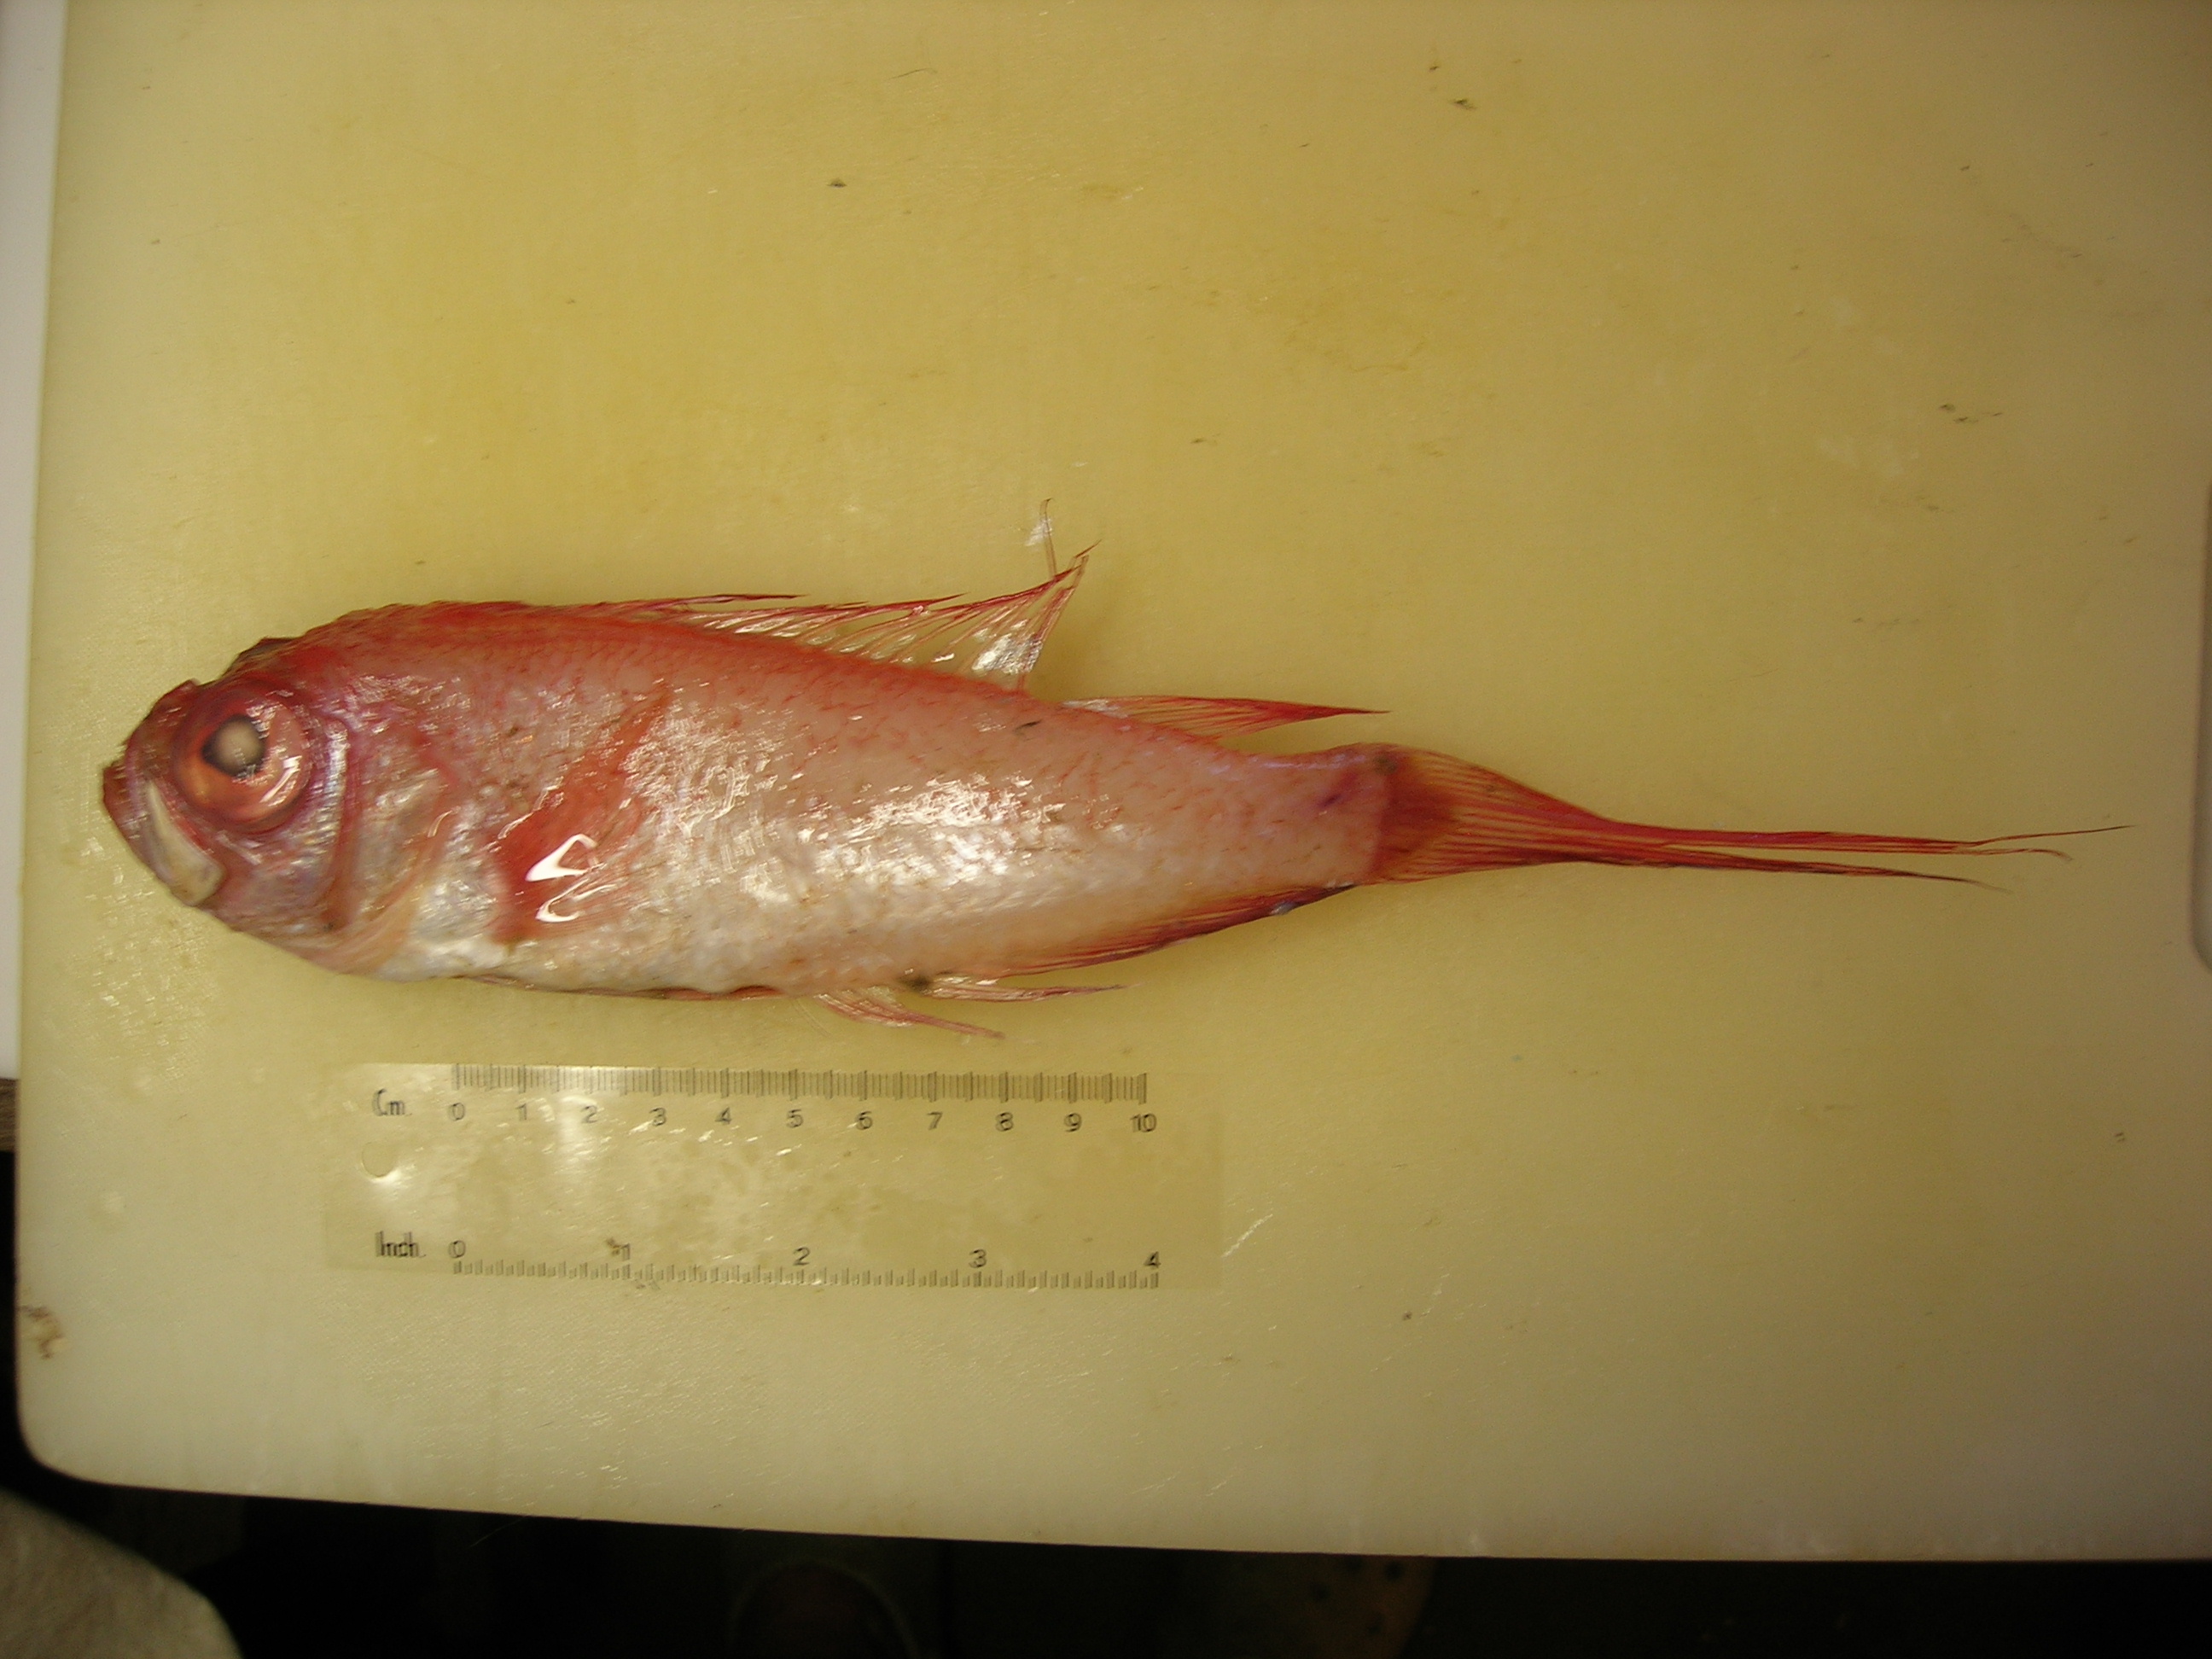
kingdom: Animalia
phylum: Chordata
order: Perciformes
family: Cepolidae
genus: Owstonia
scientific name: Owstonia weberi
